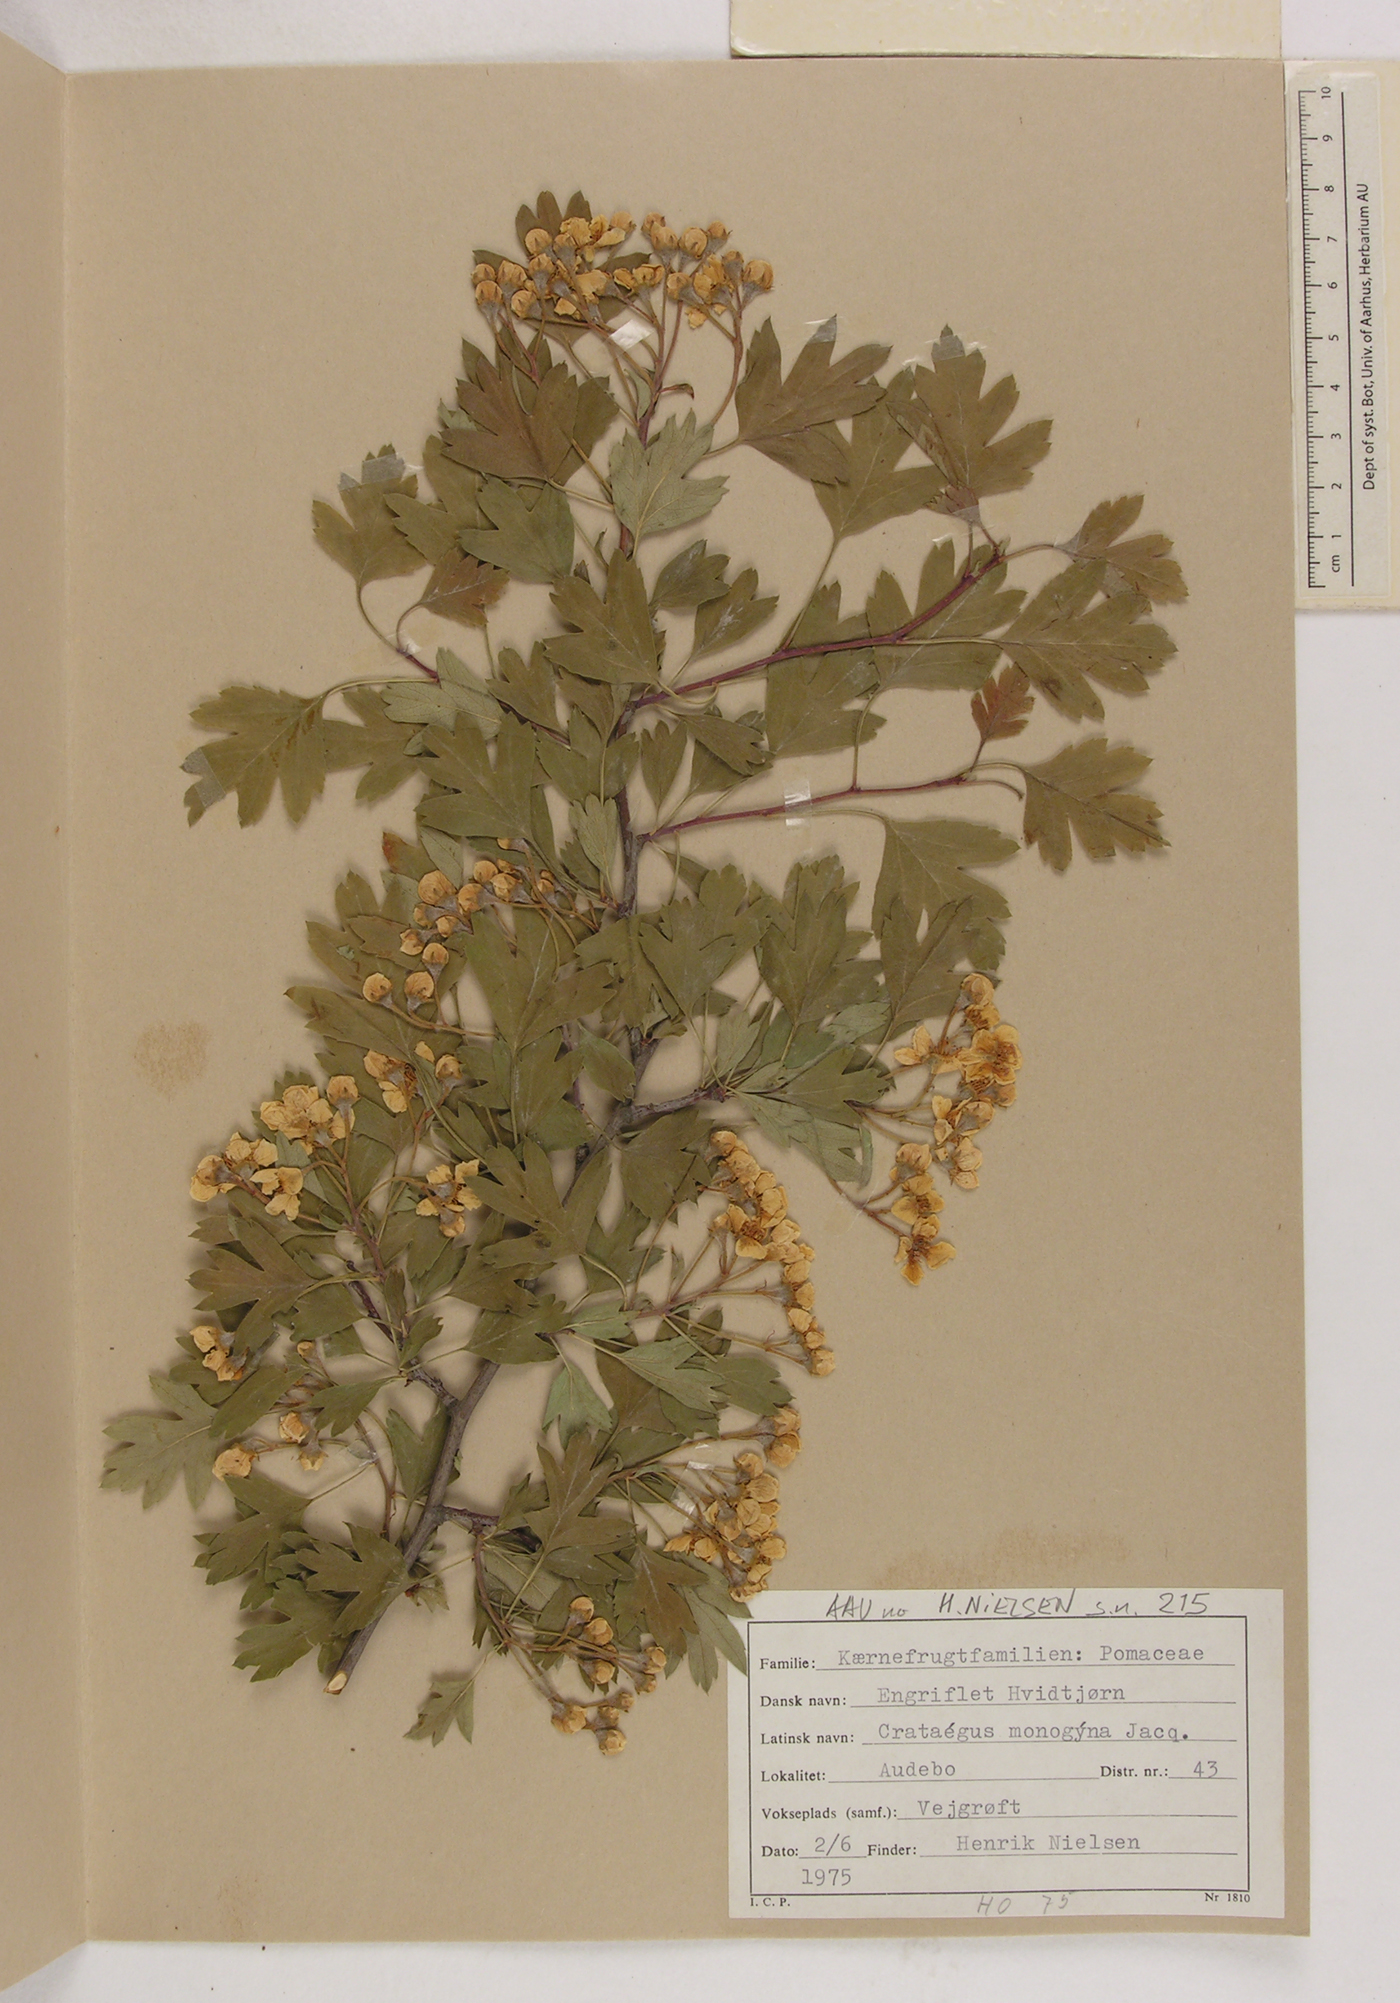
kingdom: Plantae
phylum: Tracheophyta
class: Magnoliopsida
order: Rosales
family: Rosaceae
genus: Crataegus
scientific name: Crataegus monogyna
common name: Hawthorn
